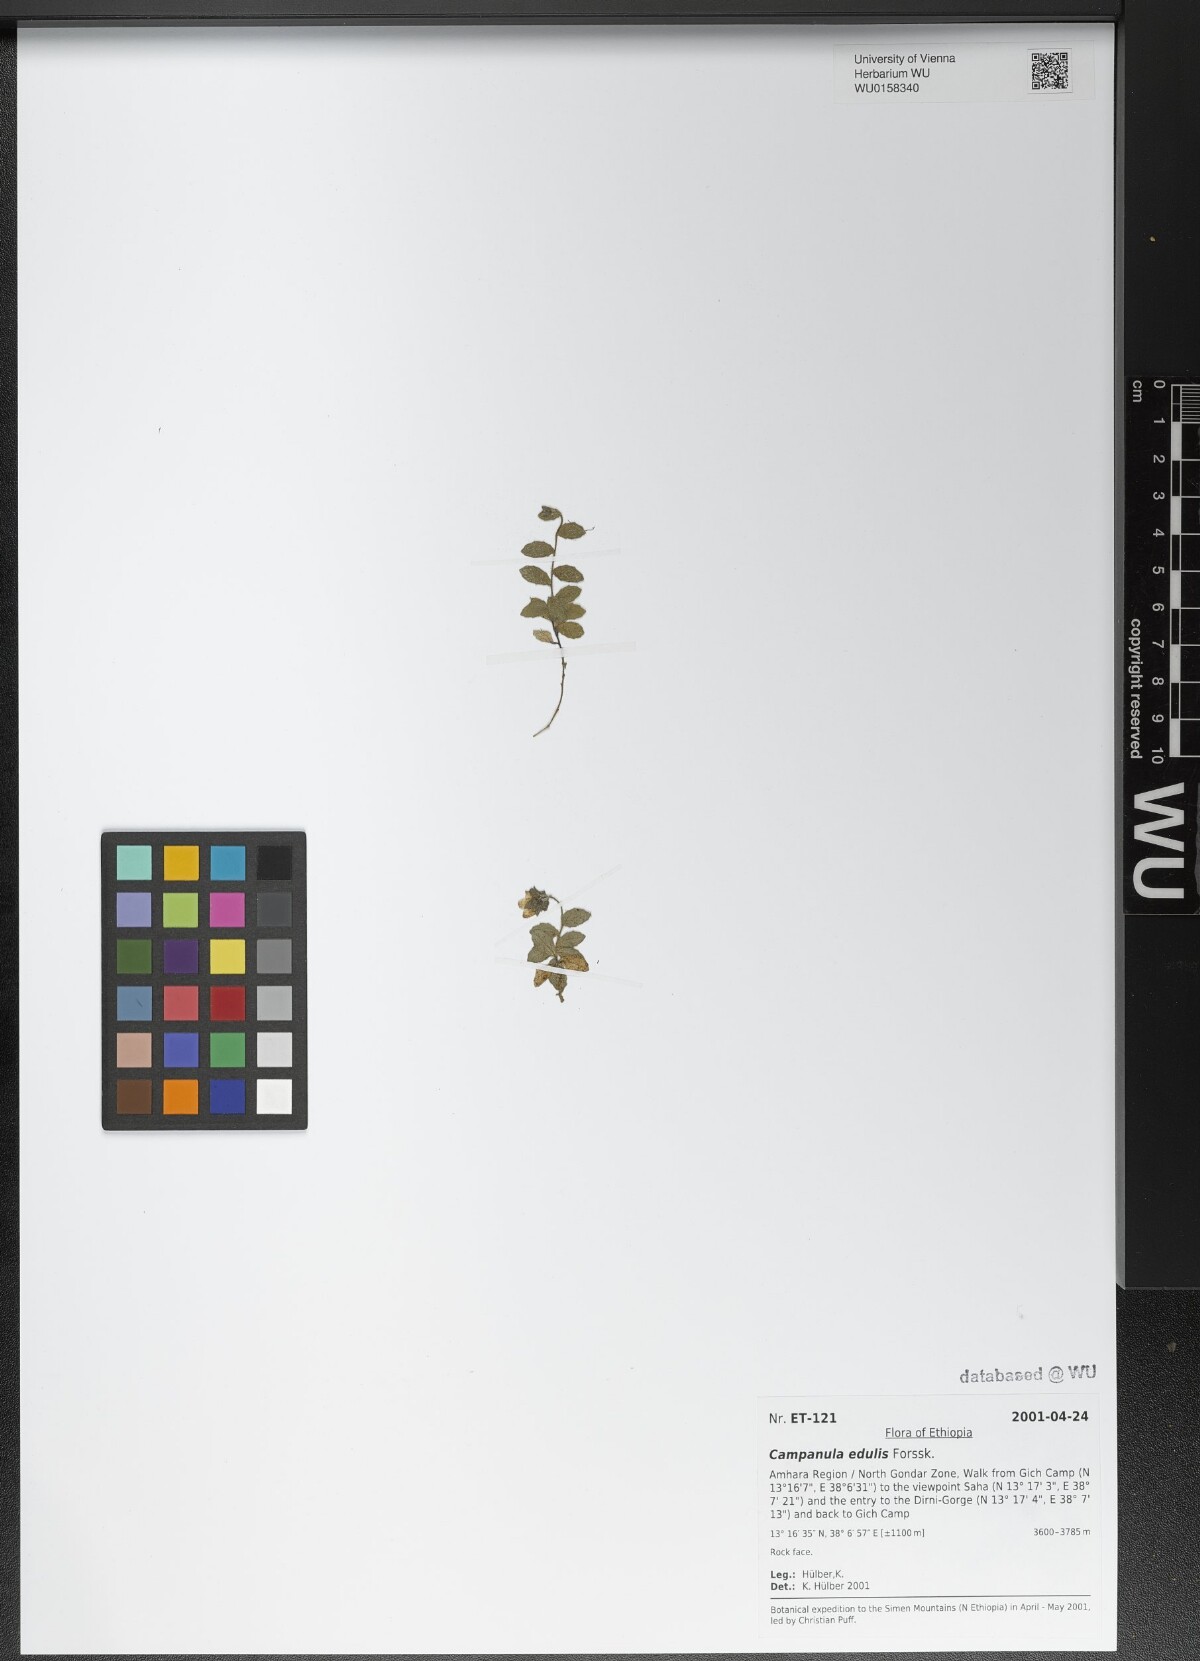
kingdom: Plantae
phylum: Tracheophyta
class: Magnoliopsida
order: Asterales
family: Campanulaceae
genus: Campanula
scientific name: Campanula edulis
